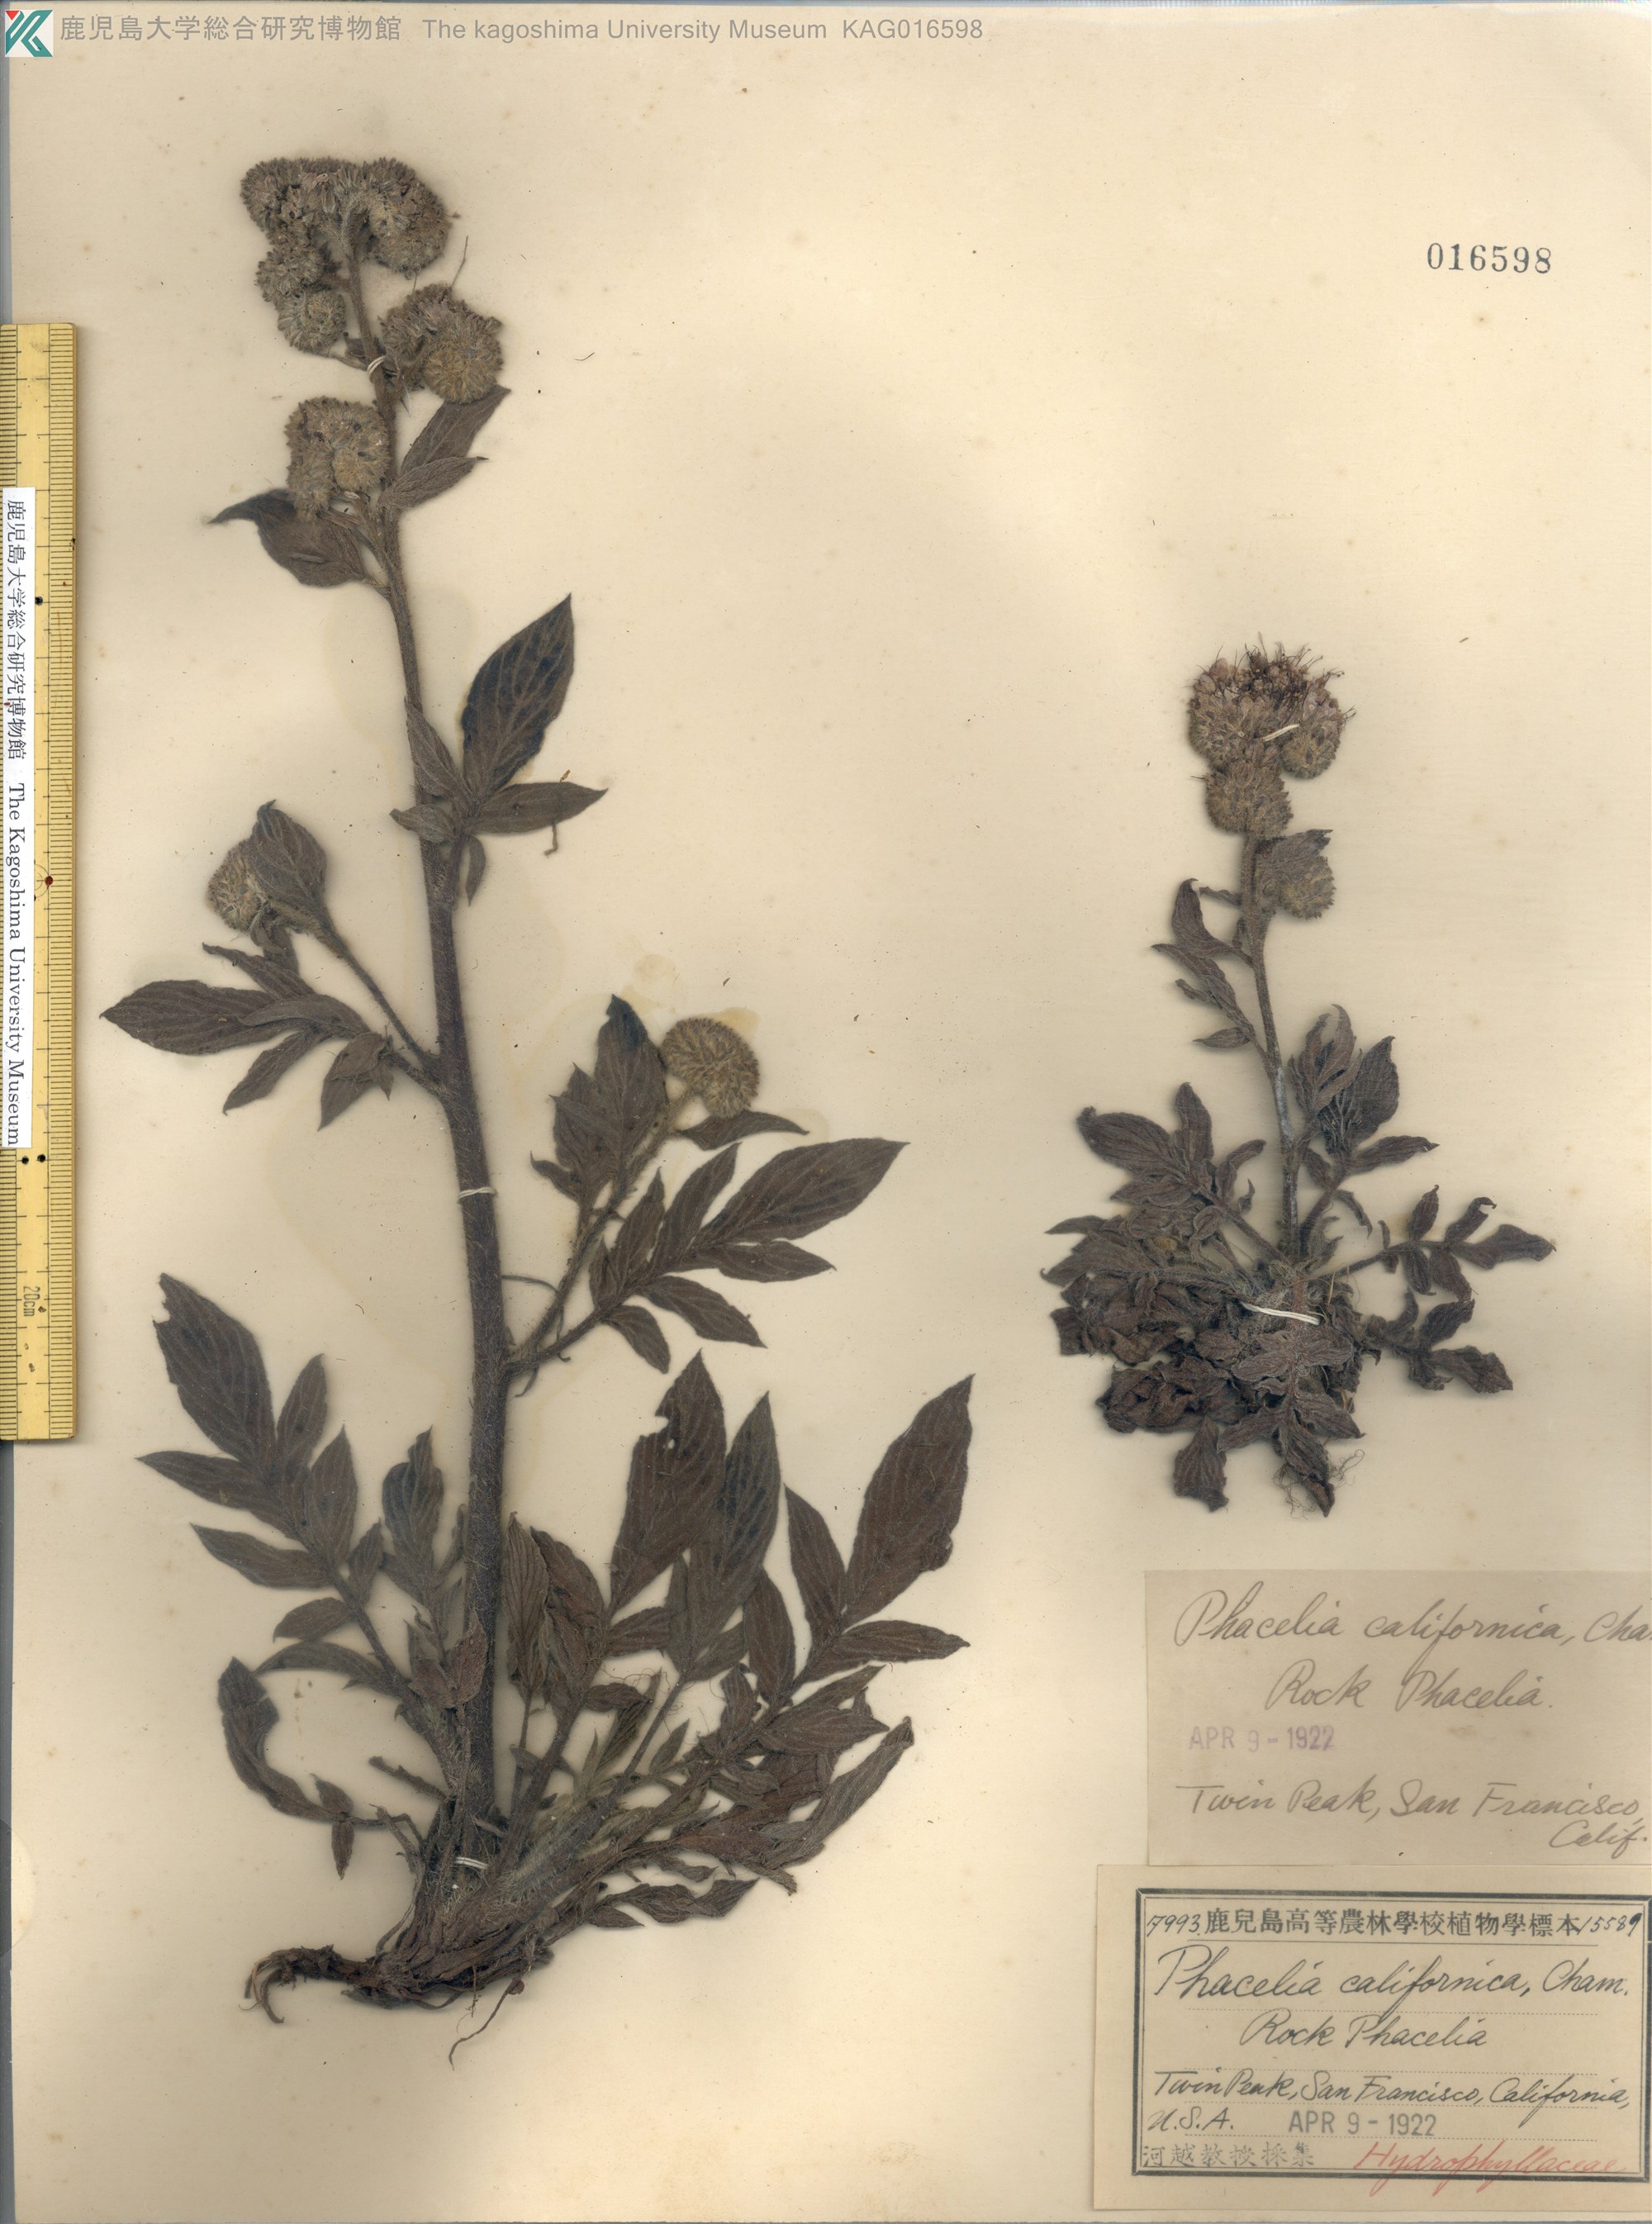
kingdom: Plantae
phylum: Tracheophyta
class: Magnoliopsida
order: Boraginales
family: Hydrophyllaceae
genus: Phacelia
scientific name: Phacelia californica
